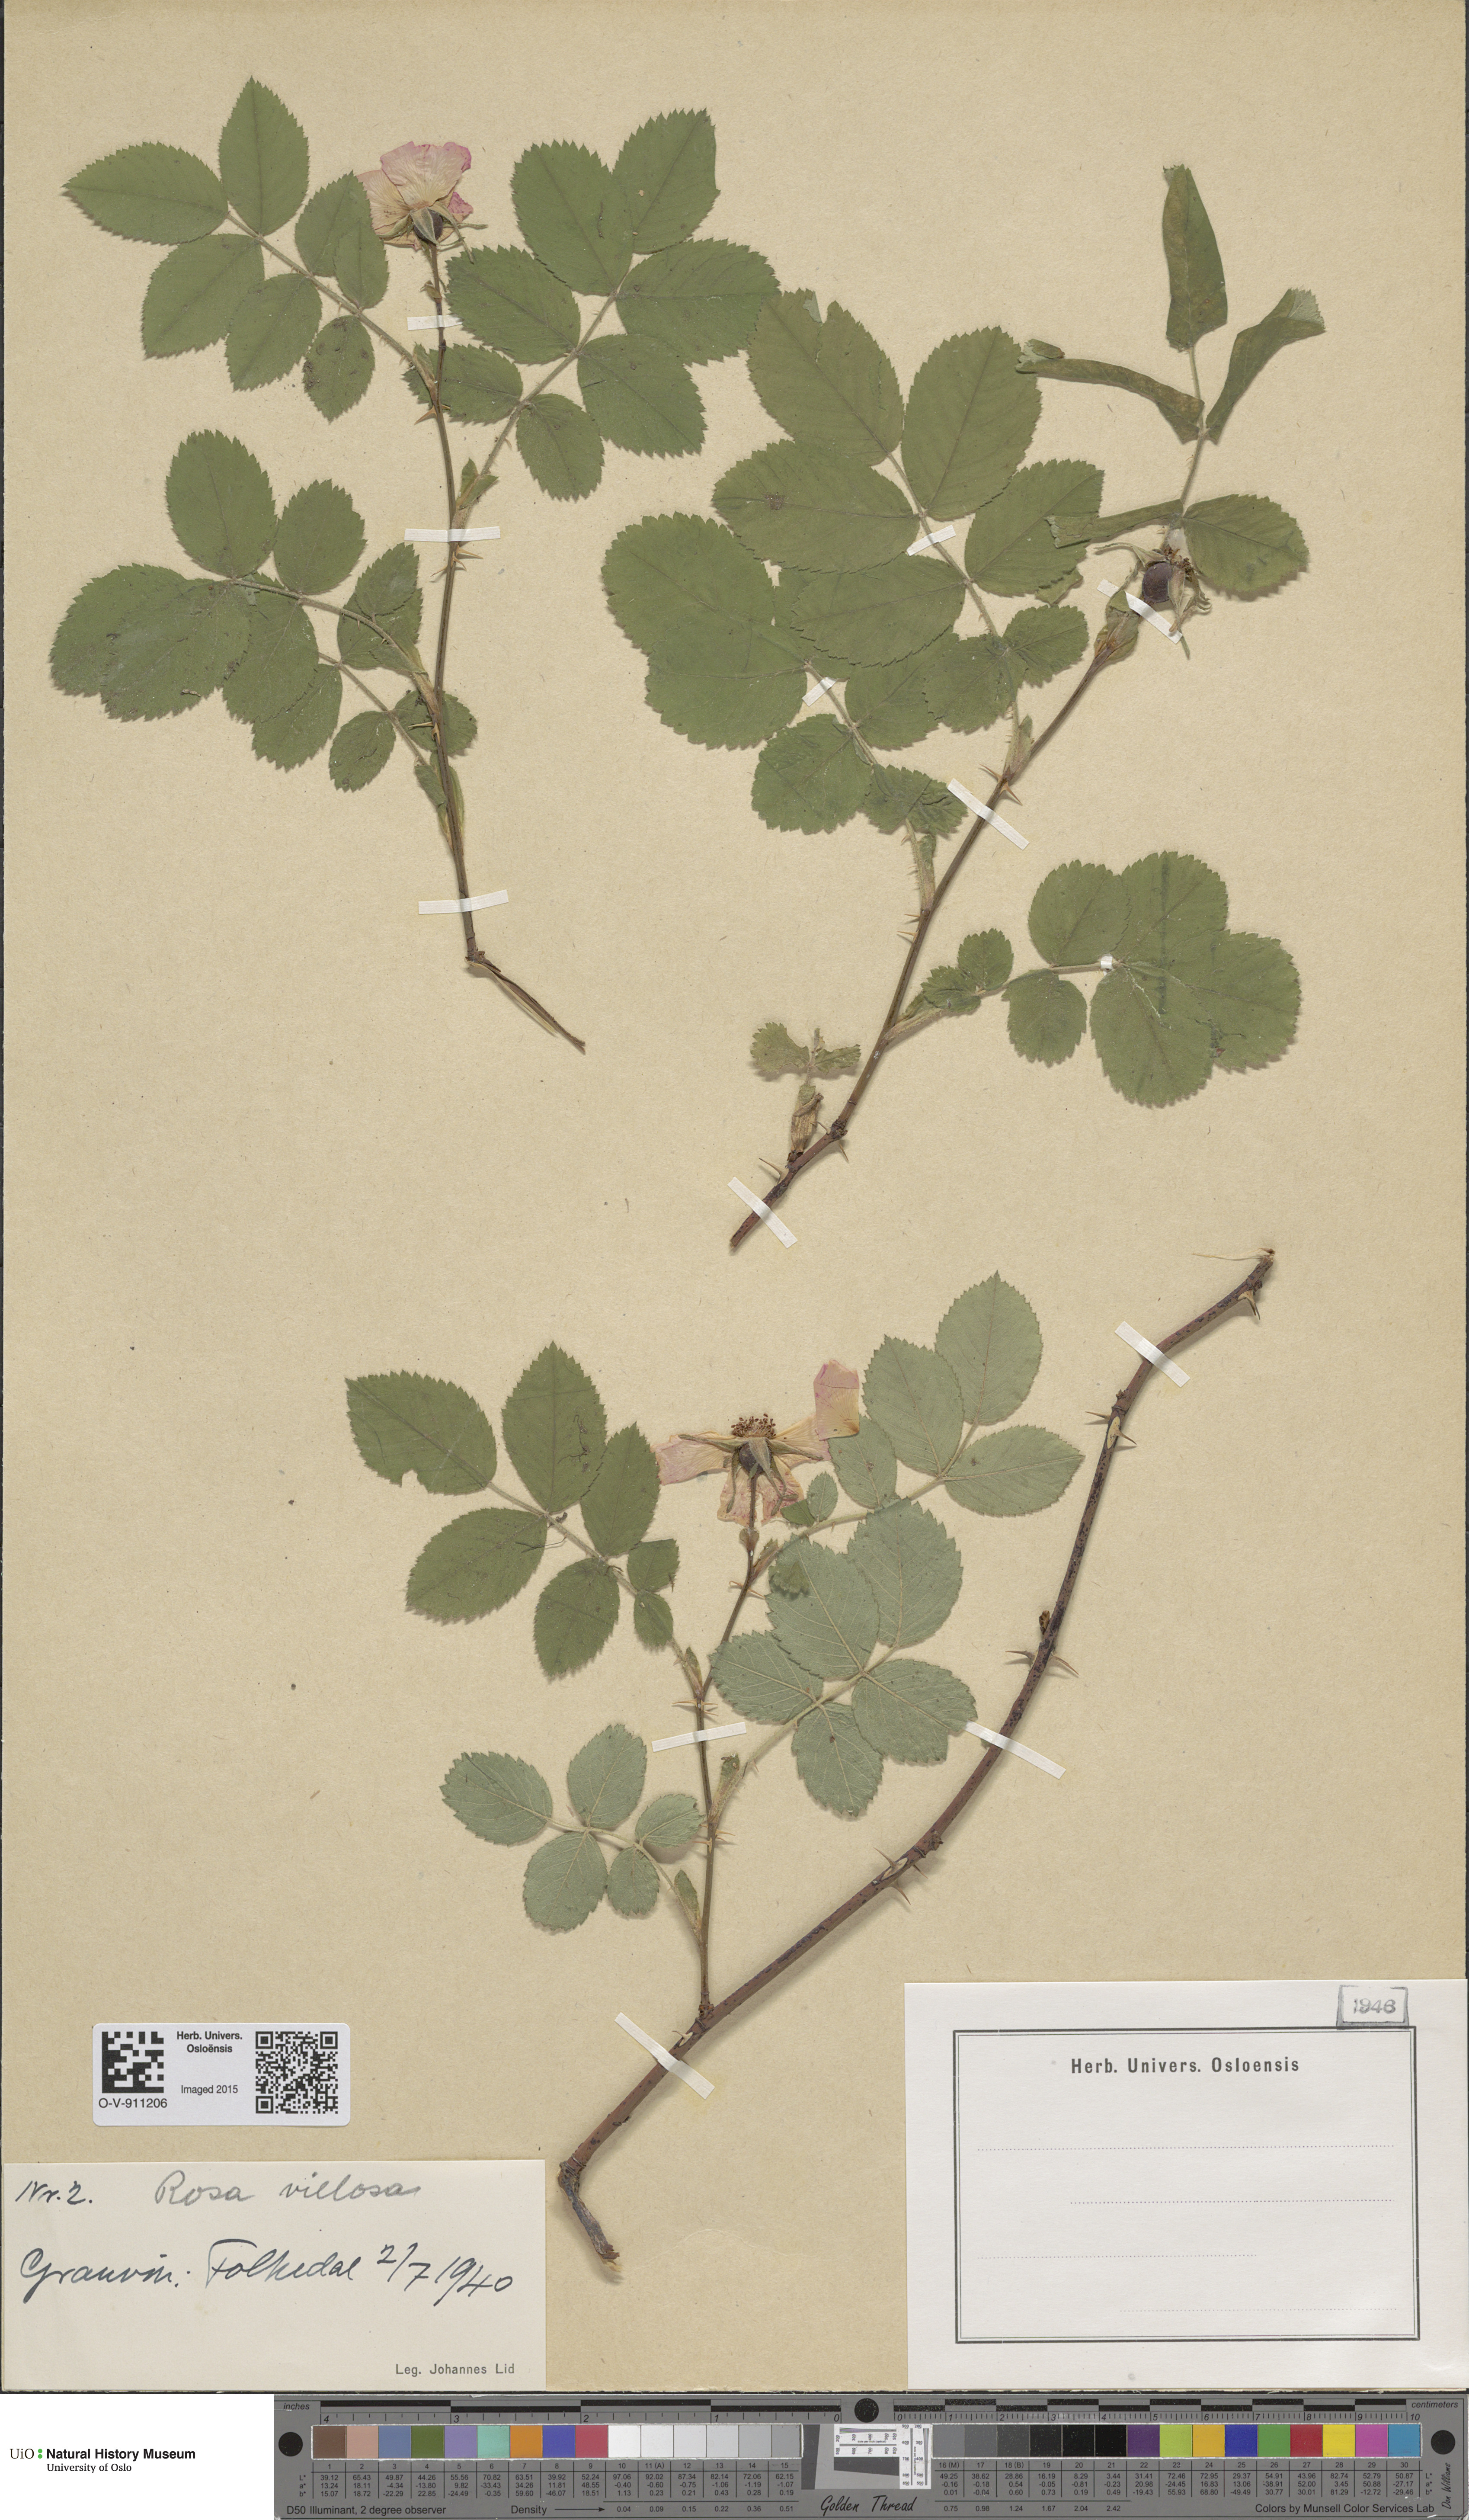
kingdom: Plantae
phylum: Tracheophyta
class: Magnoliopsida
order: Rosales
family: Rosaceae
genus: Rosa
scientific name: Rosa villosa
